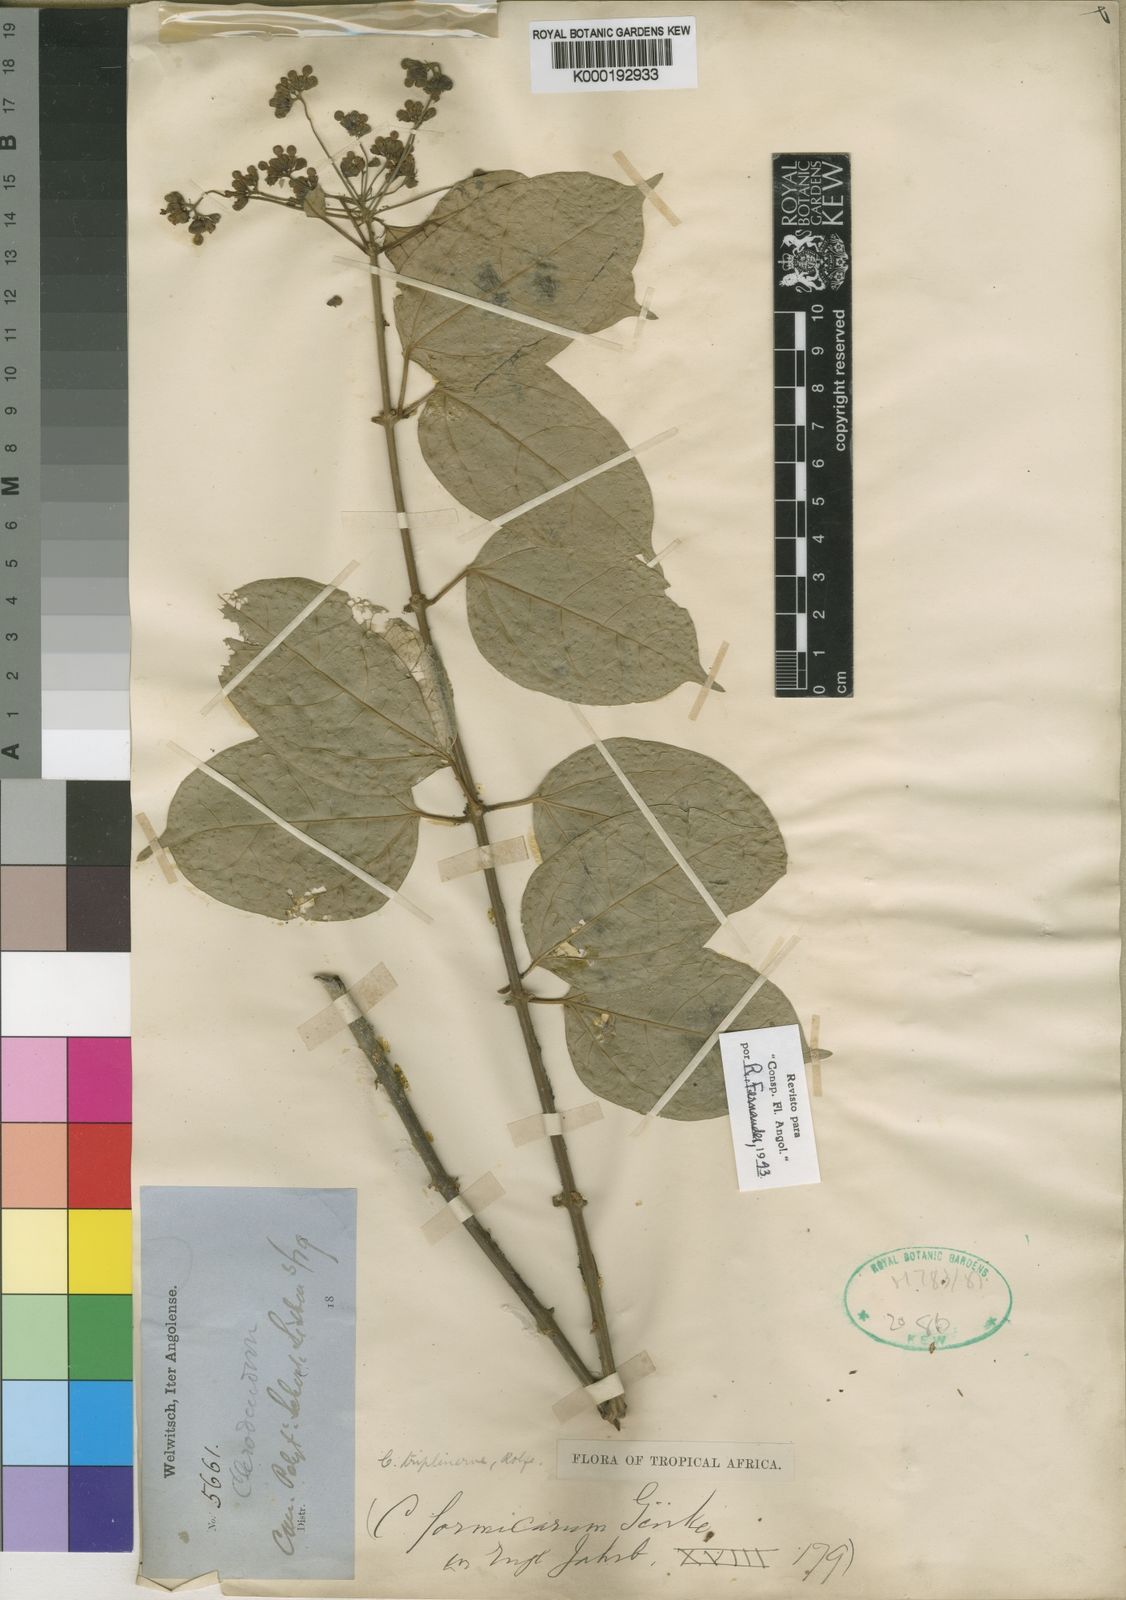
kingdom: Plantae
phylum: Tracheophyta
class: Magnoliopsida
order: Lamiales
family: Lamiaceae
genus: Clerodendrum
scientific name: Clerodendrum
